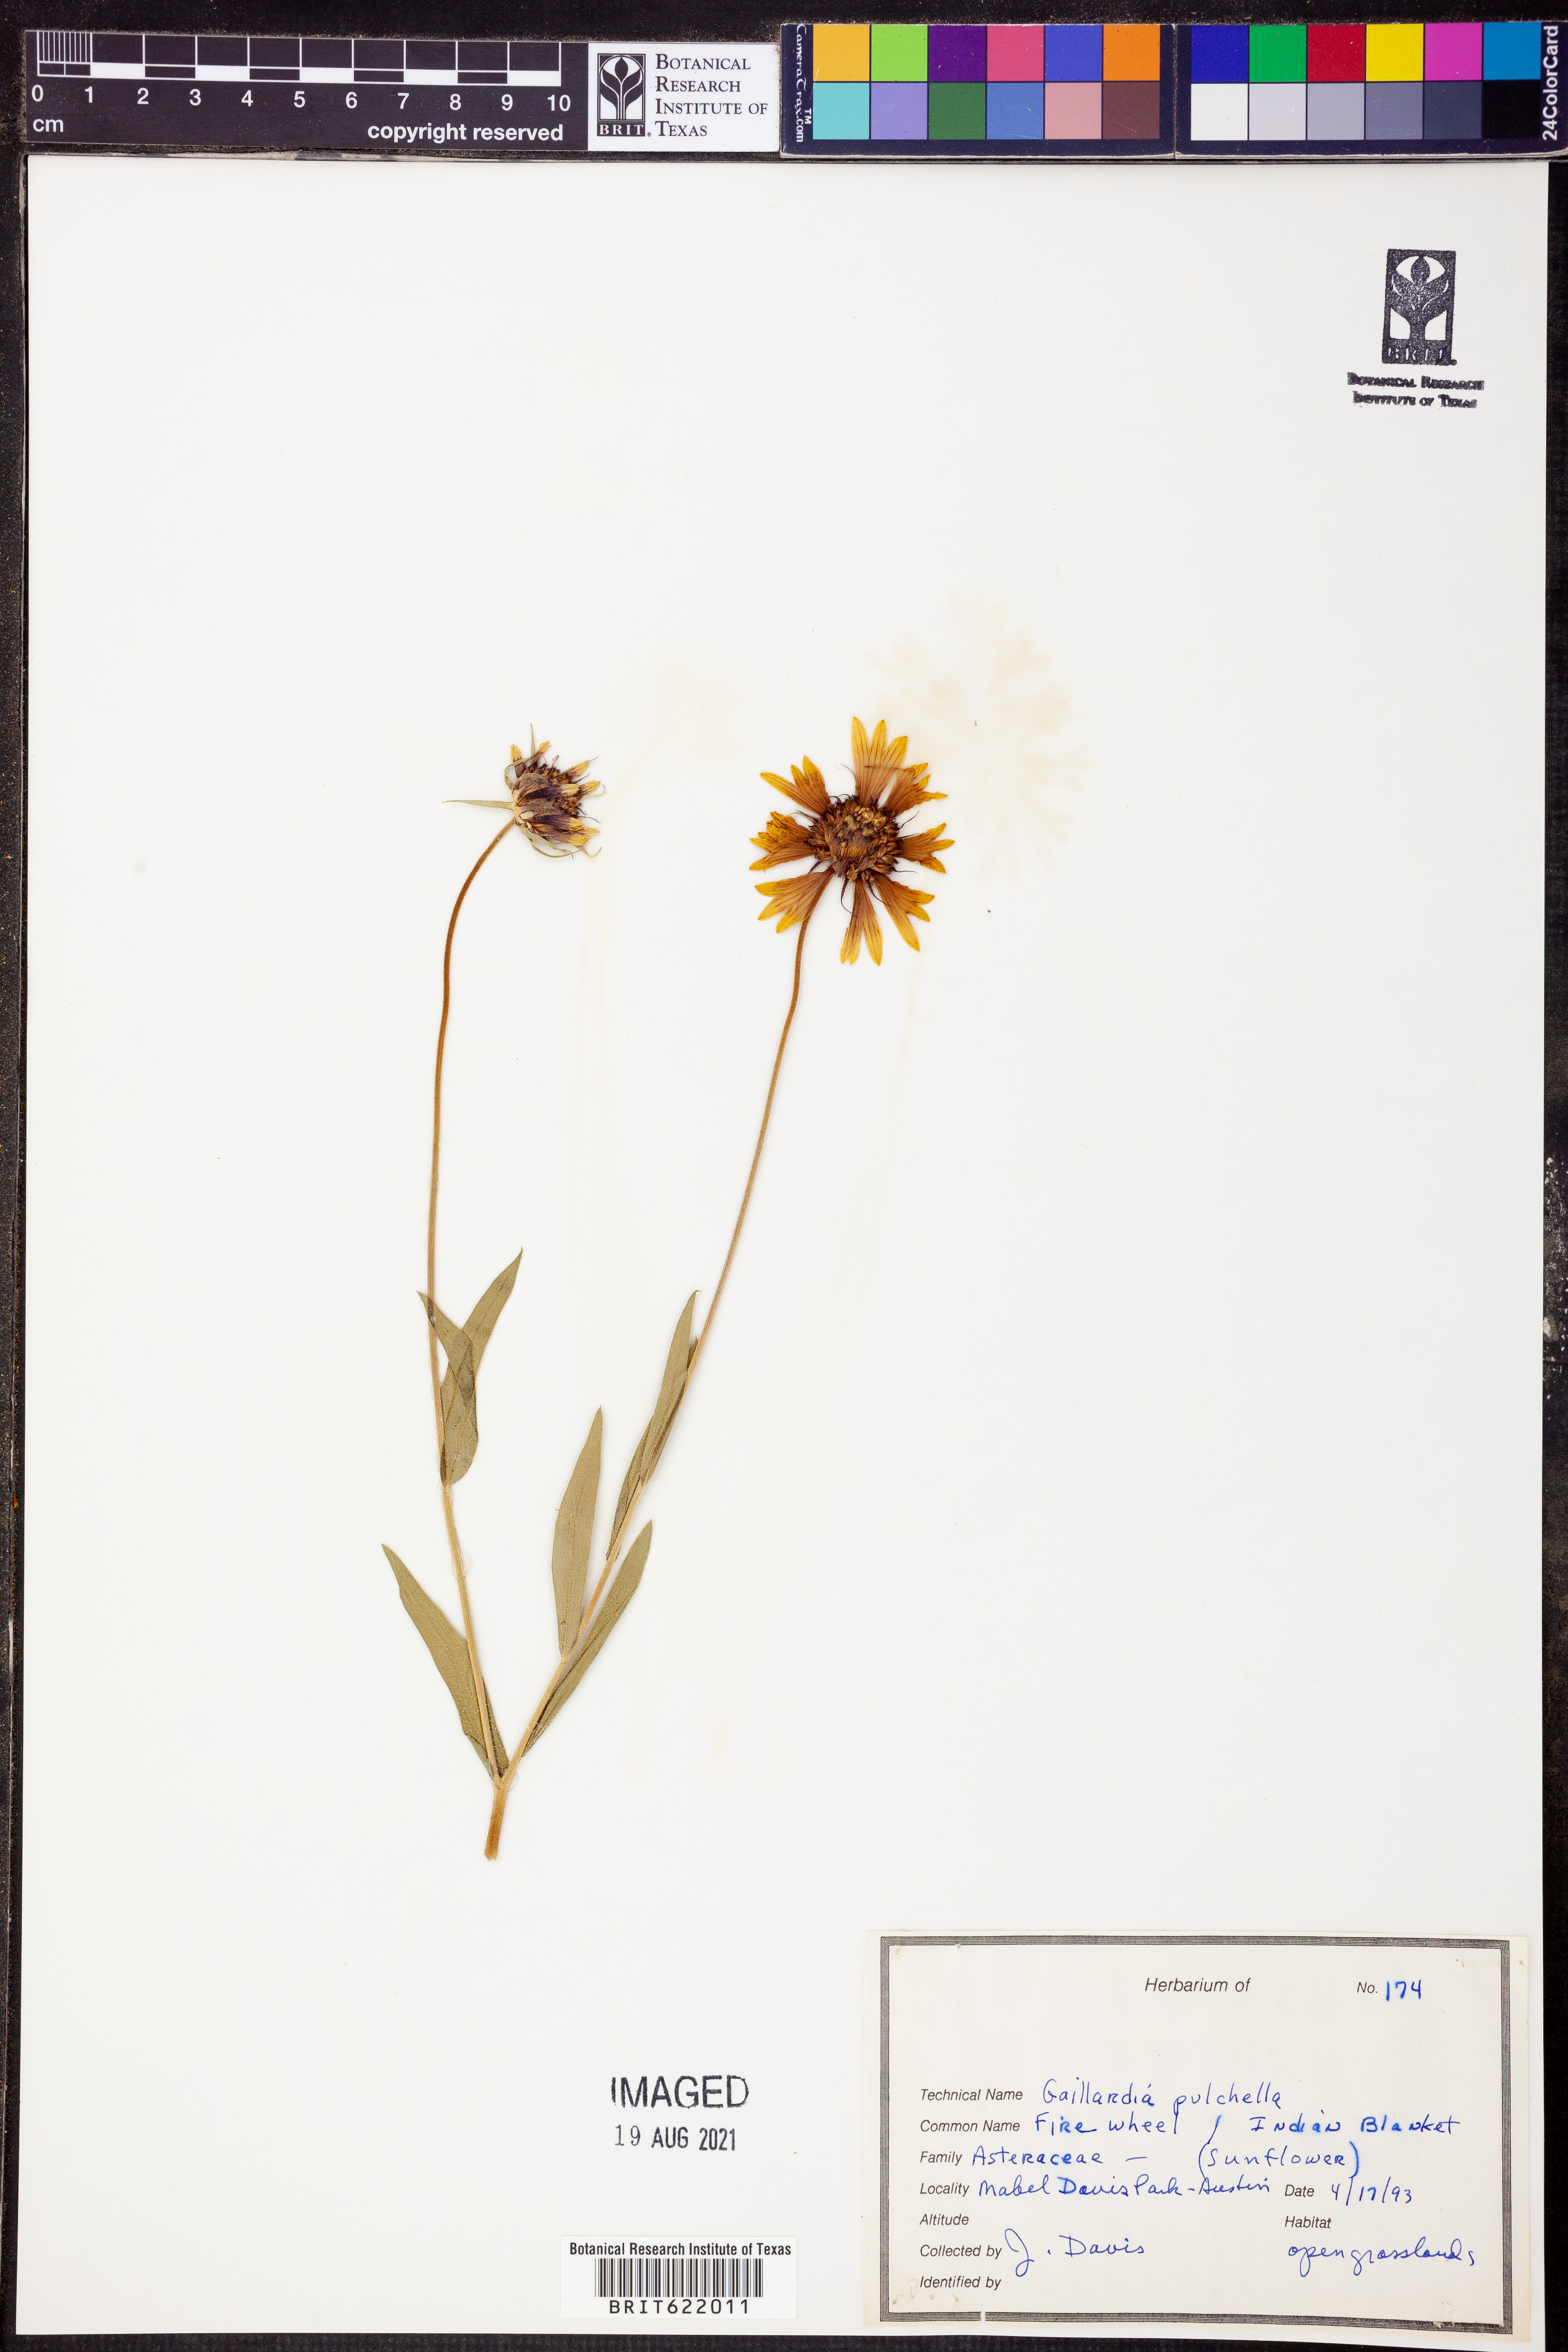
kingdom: Plantae
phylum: Tracheophyta
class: Magnoliopsida
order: Asterales
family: Asteraceae
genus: Gaillardia
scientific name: Gaillardia pulchella
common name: Firewheel
